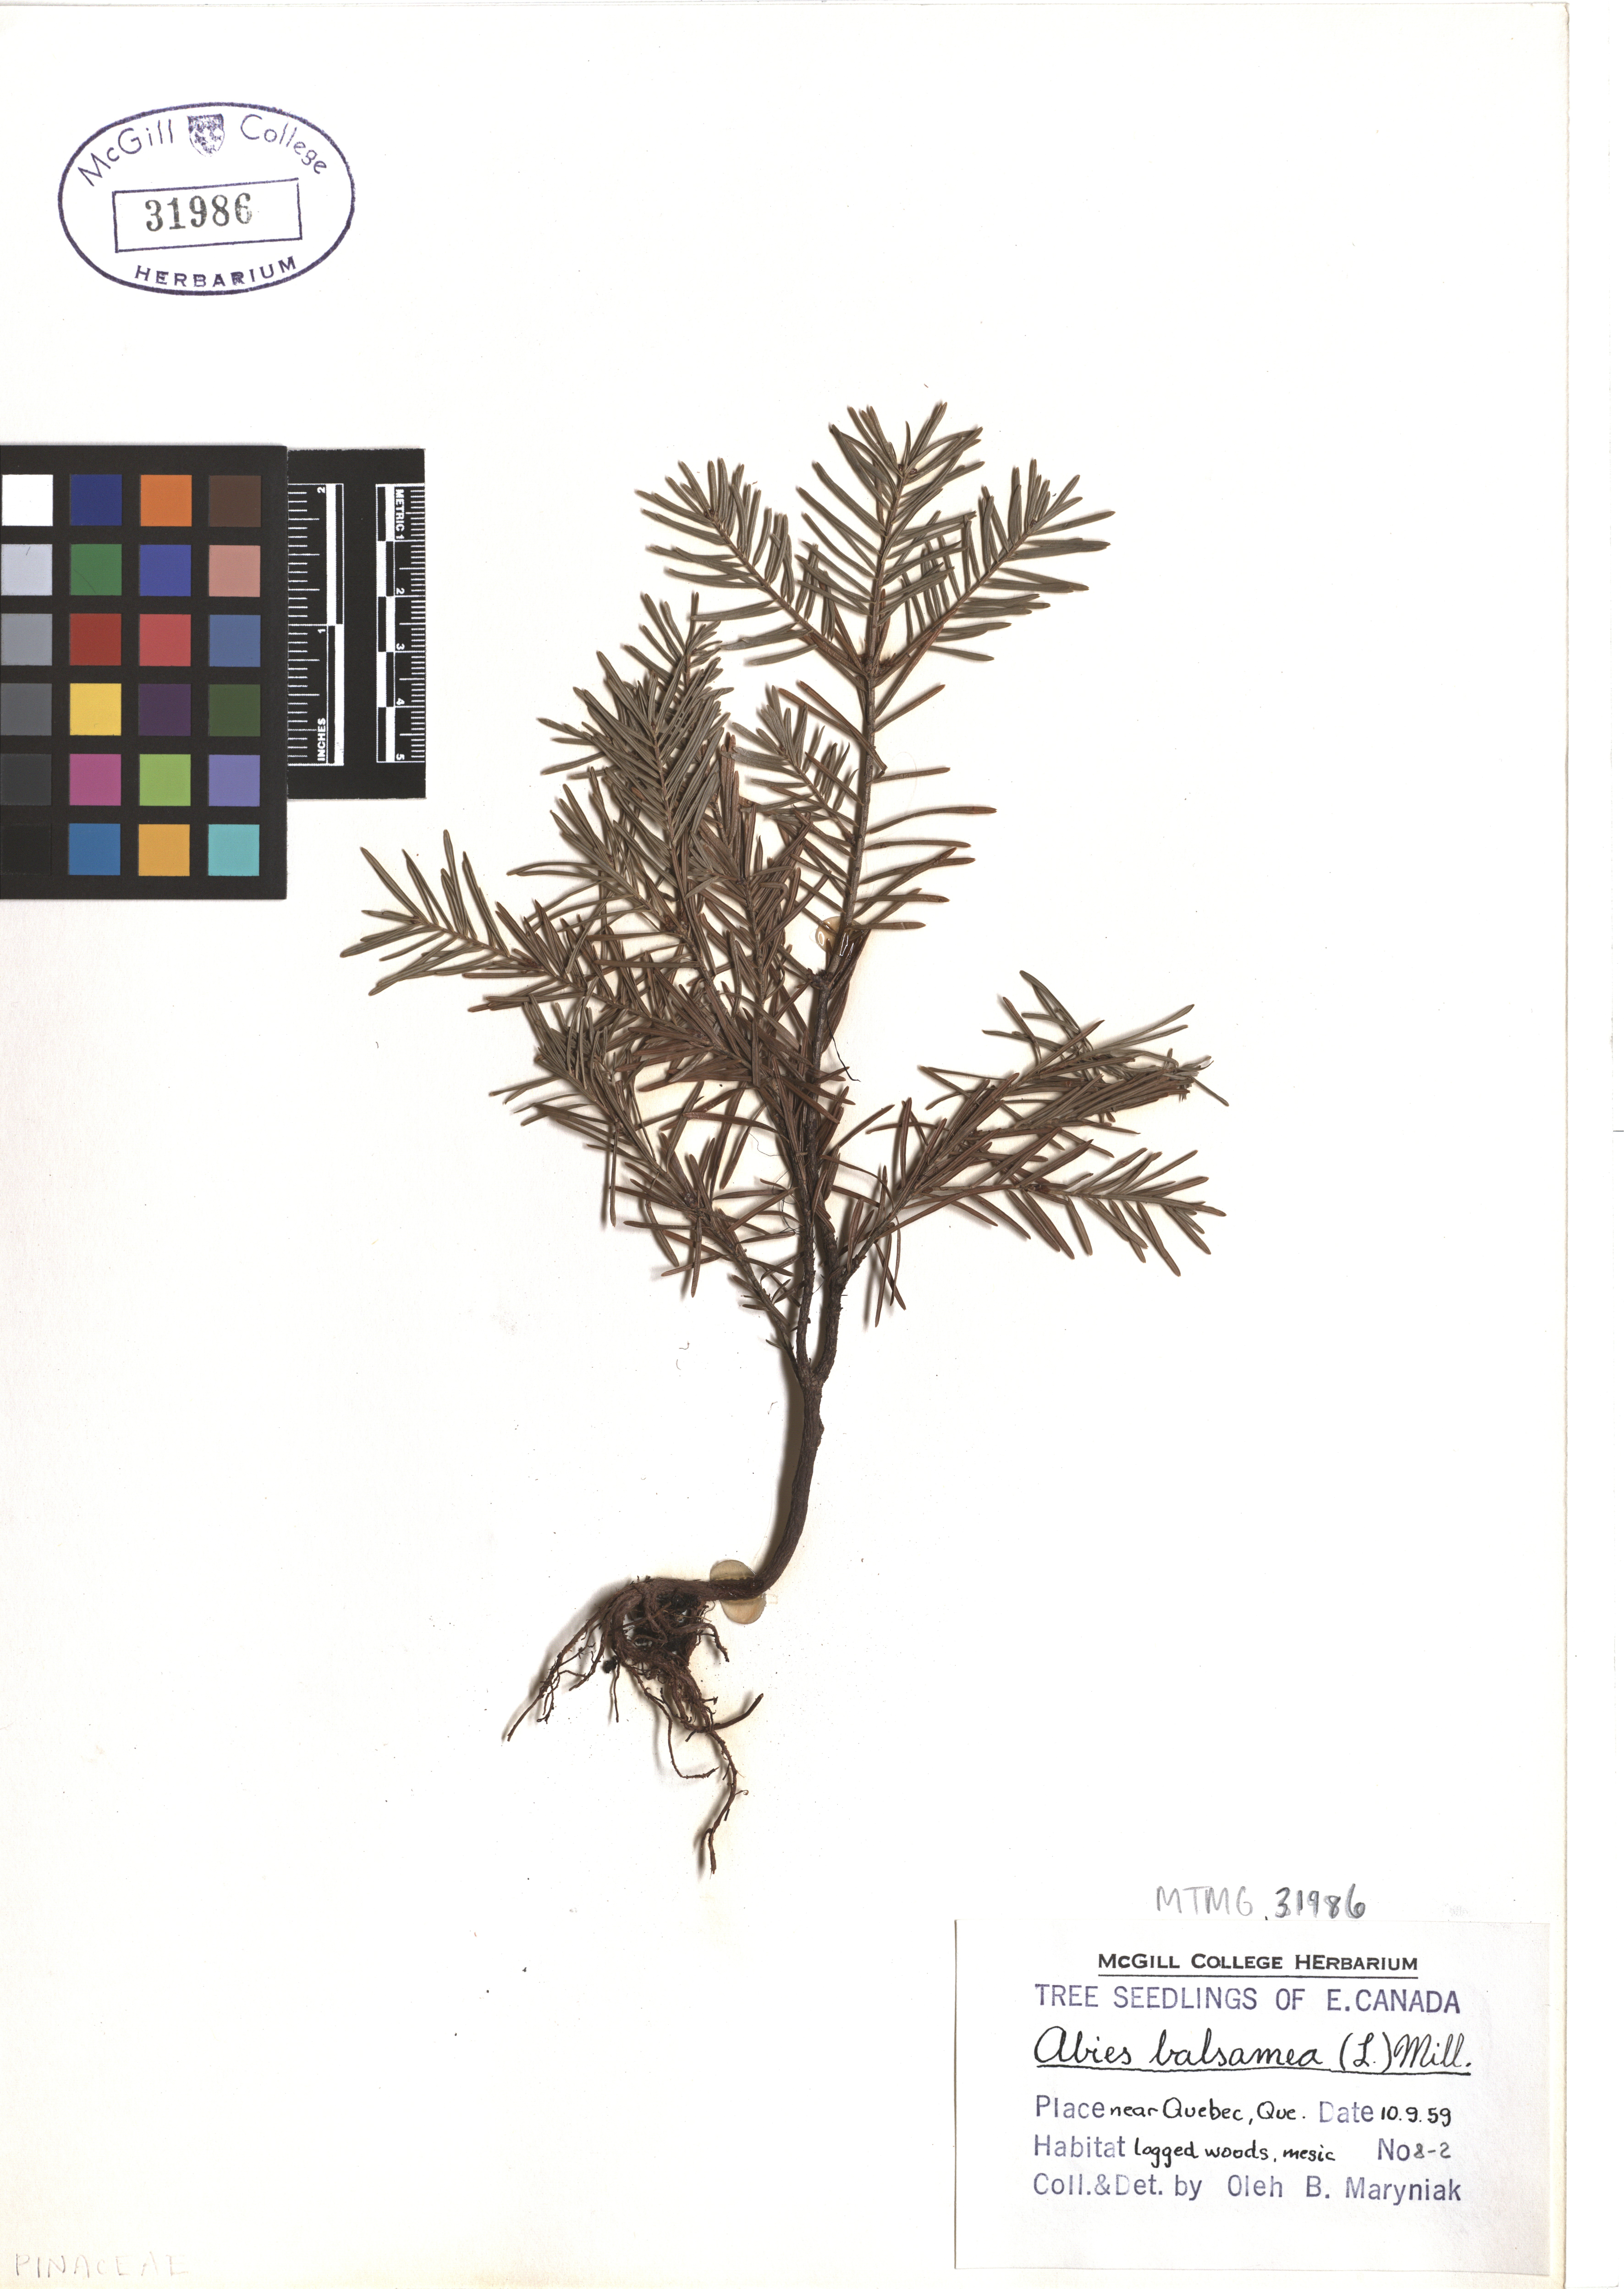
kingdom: Plantae
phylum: Tracheophyta
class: Pinopsida
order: Pinales
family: Pinaceae
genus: Abies
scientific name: Abies balsamea
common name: Balsam fir
